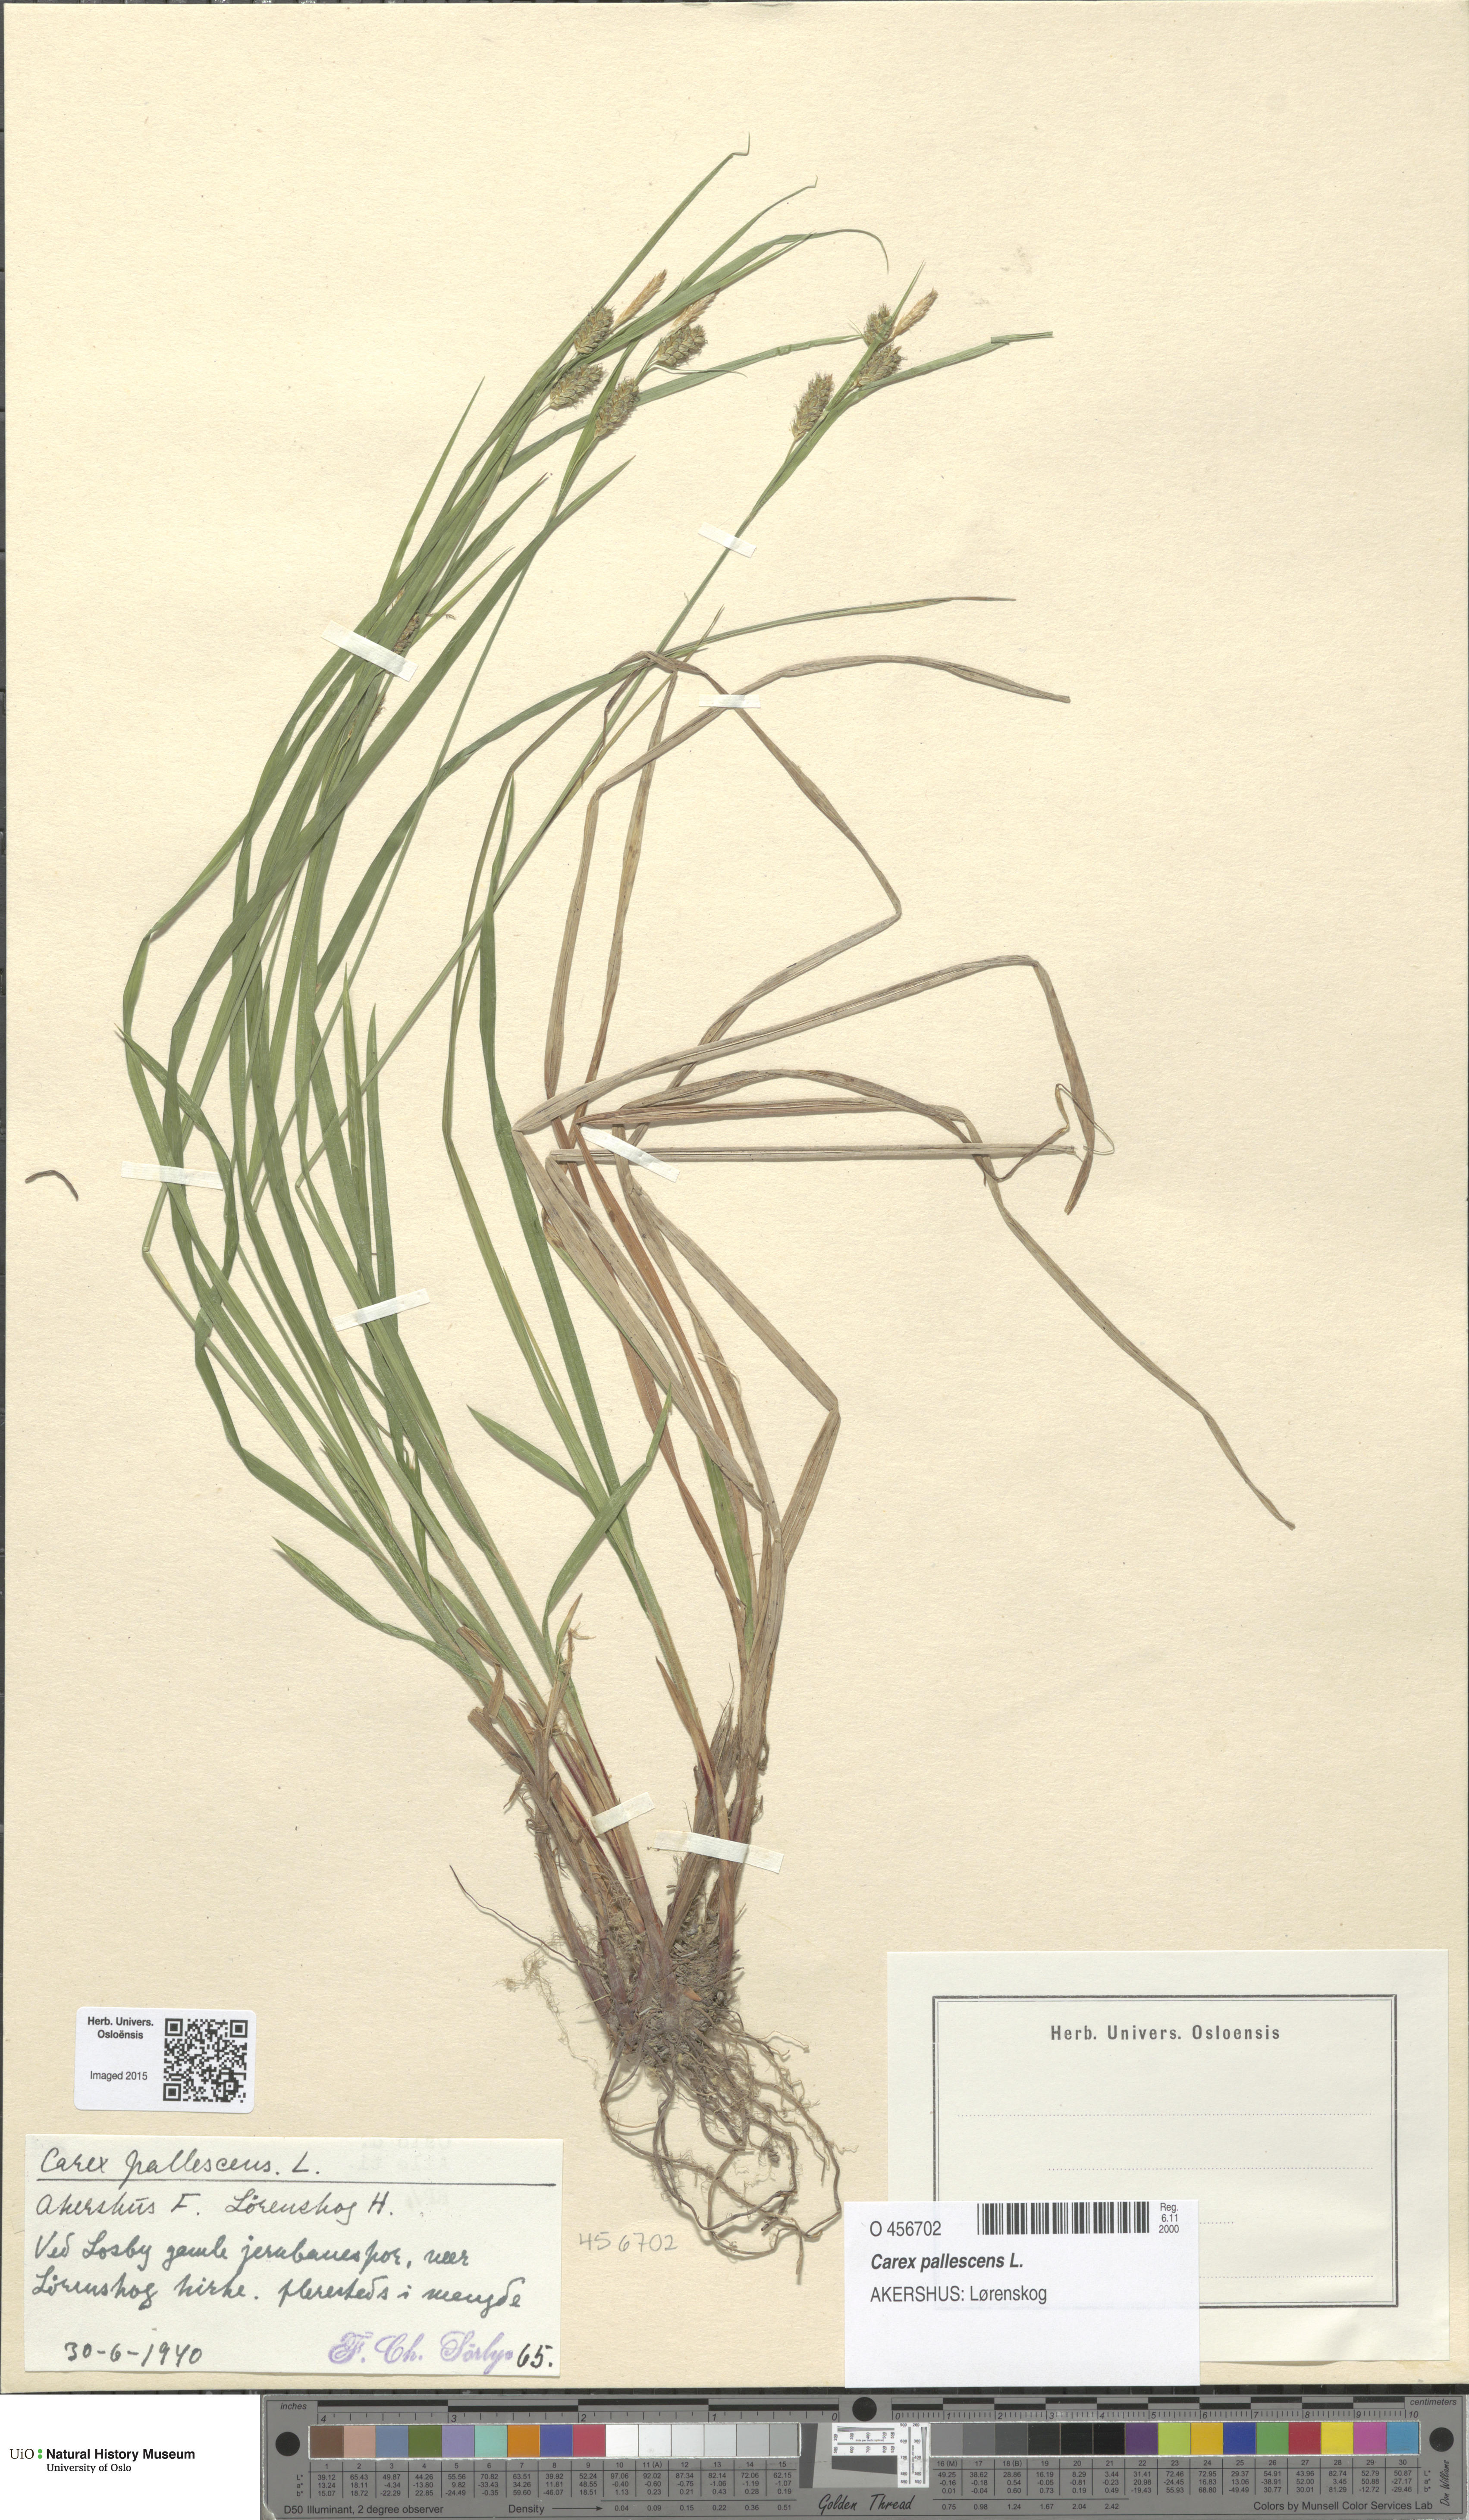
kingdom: Plantae
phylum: Tracheophyta
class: Liliopsida
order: Poales
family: Cyperaceae
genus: Carex
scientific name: Carex pallescens
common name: Pale sedge
